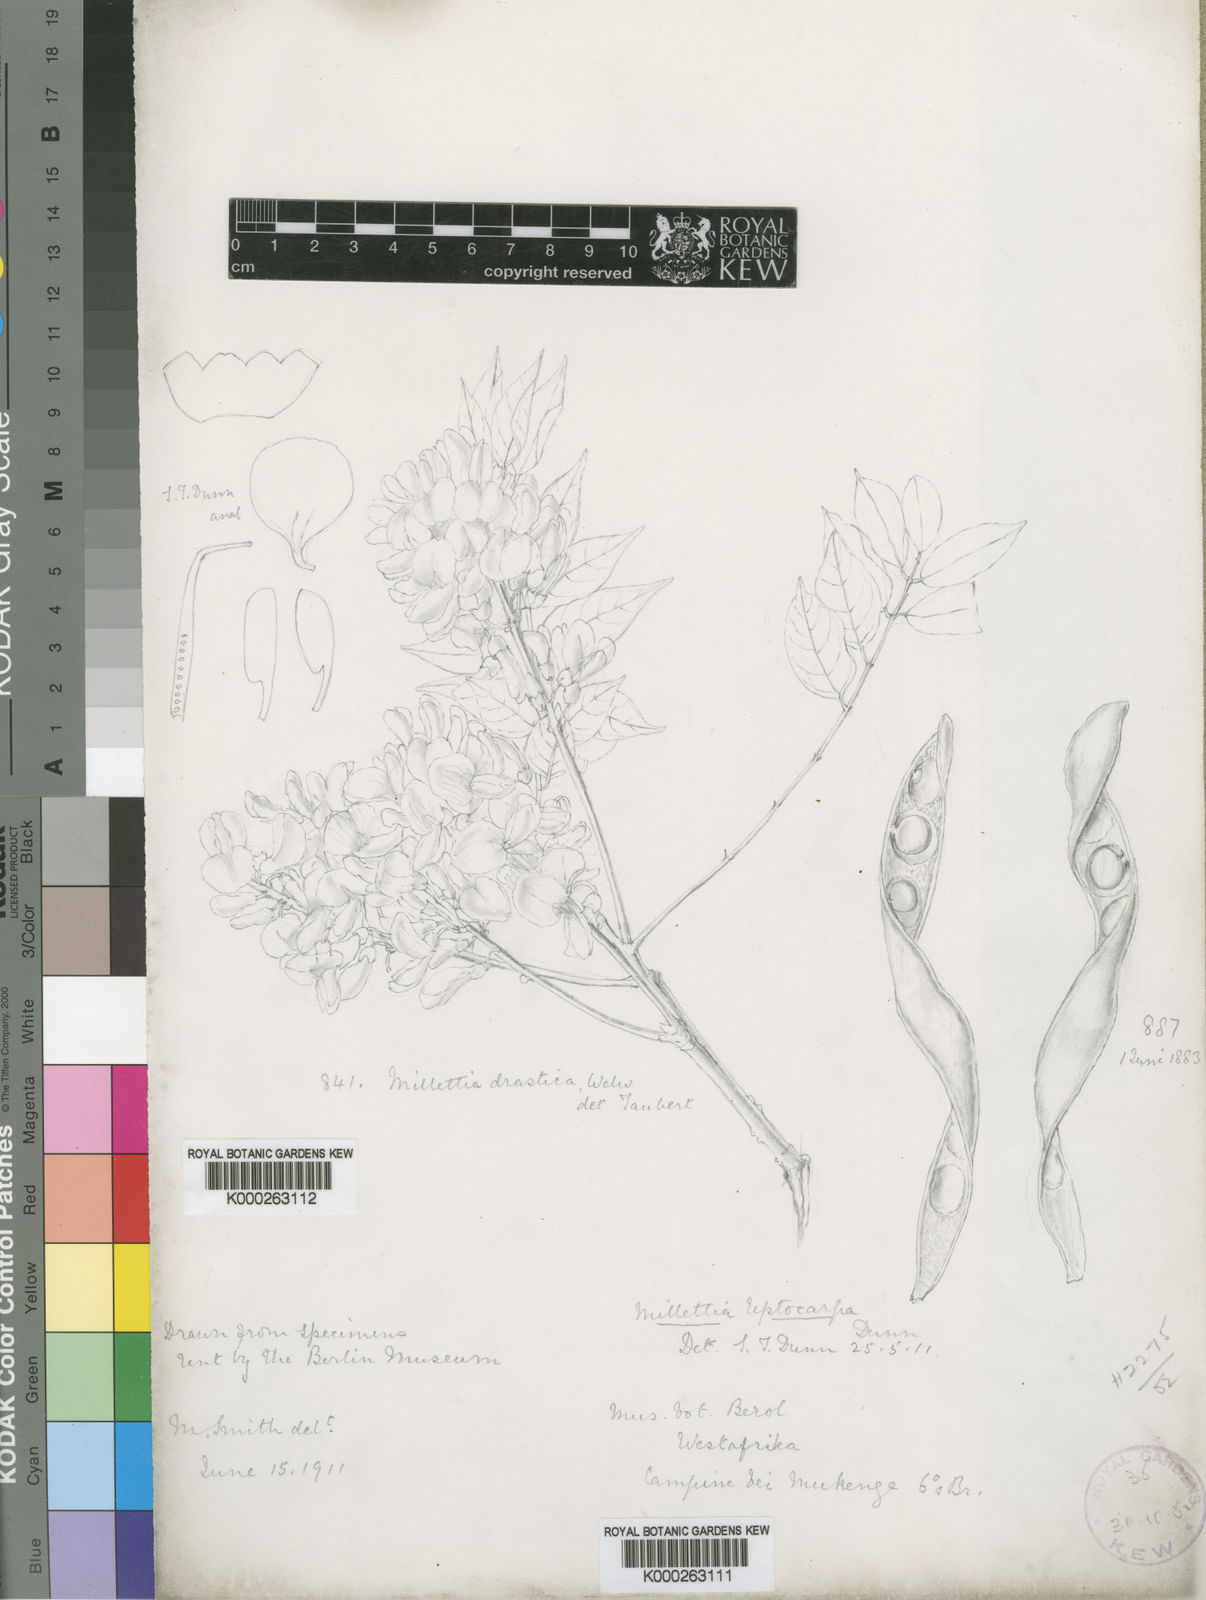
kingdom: Plantae
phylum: Tracheophyta
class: Magnoliopsida
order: Fabales
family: Fabaceae
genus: Millettia
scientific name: Millettia eetveldeana
